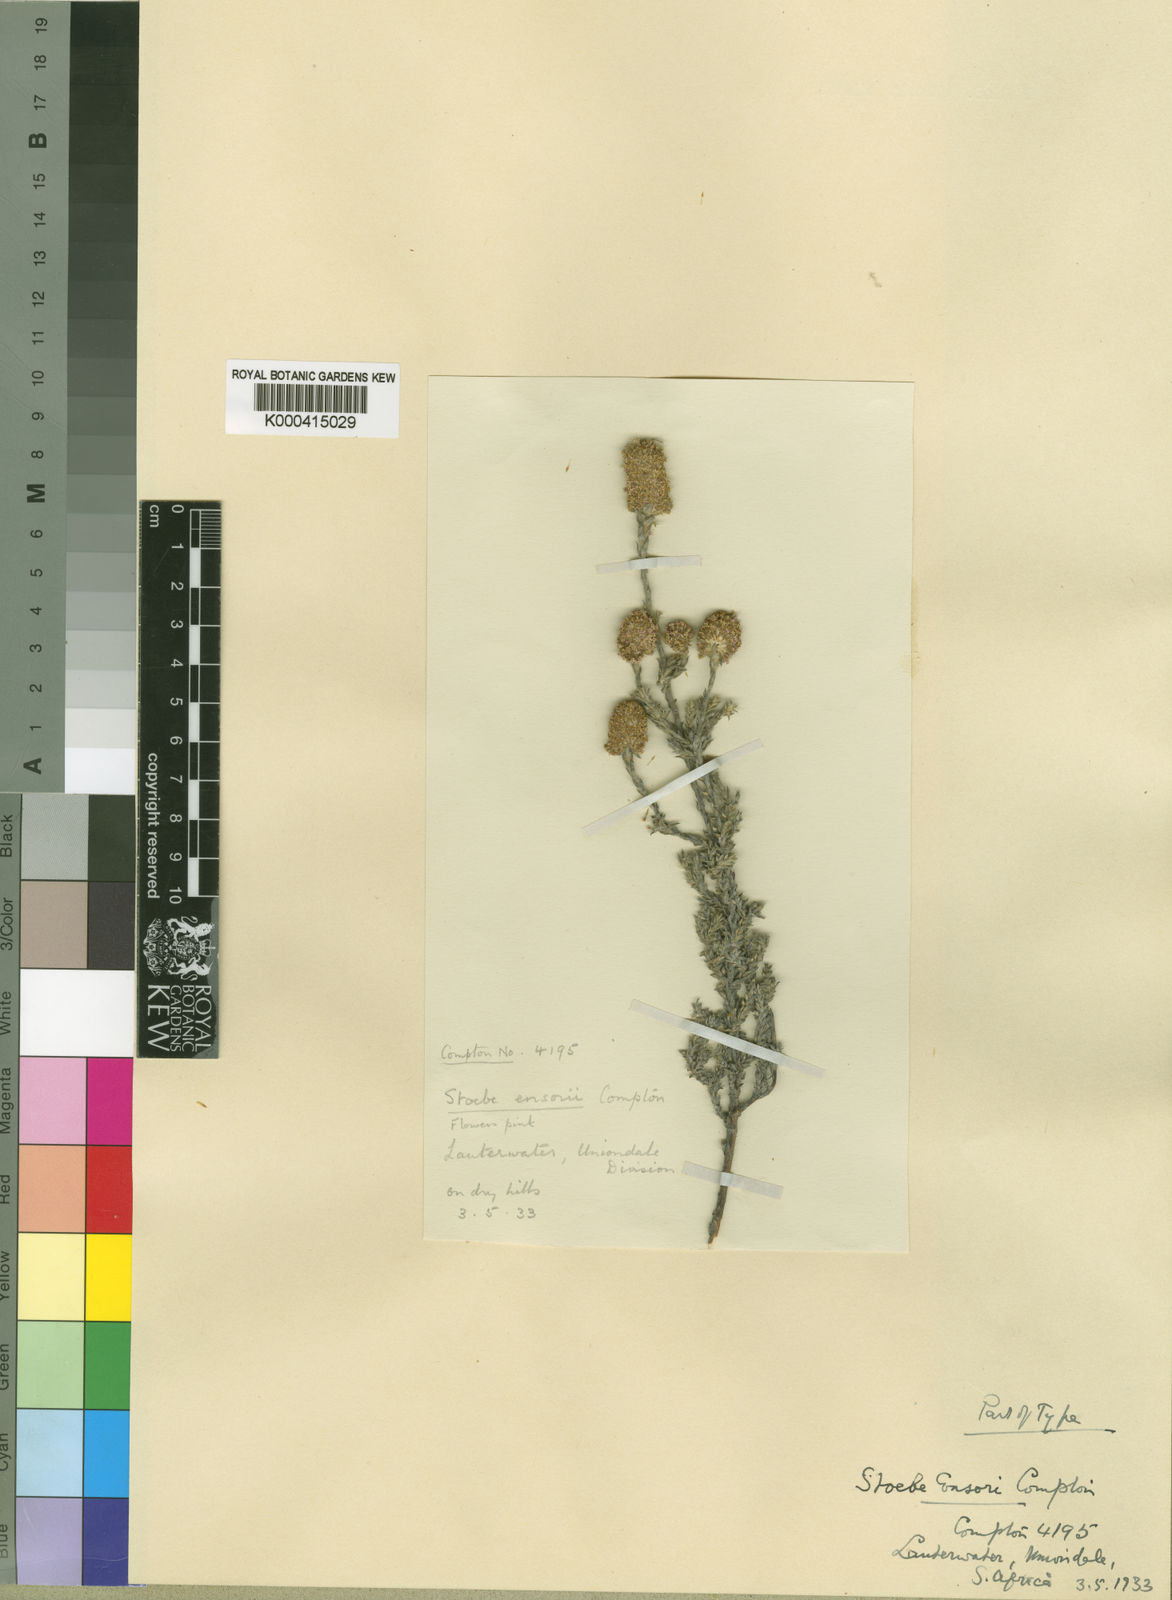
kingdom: Plantae
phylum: Tracheophyta
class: Magnoliopsida
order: Asterales
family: Asteraceae
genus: Stoebe
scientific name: Stoebe phyllostachya
